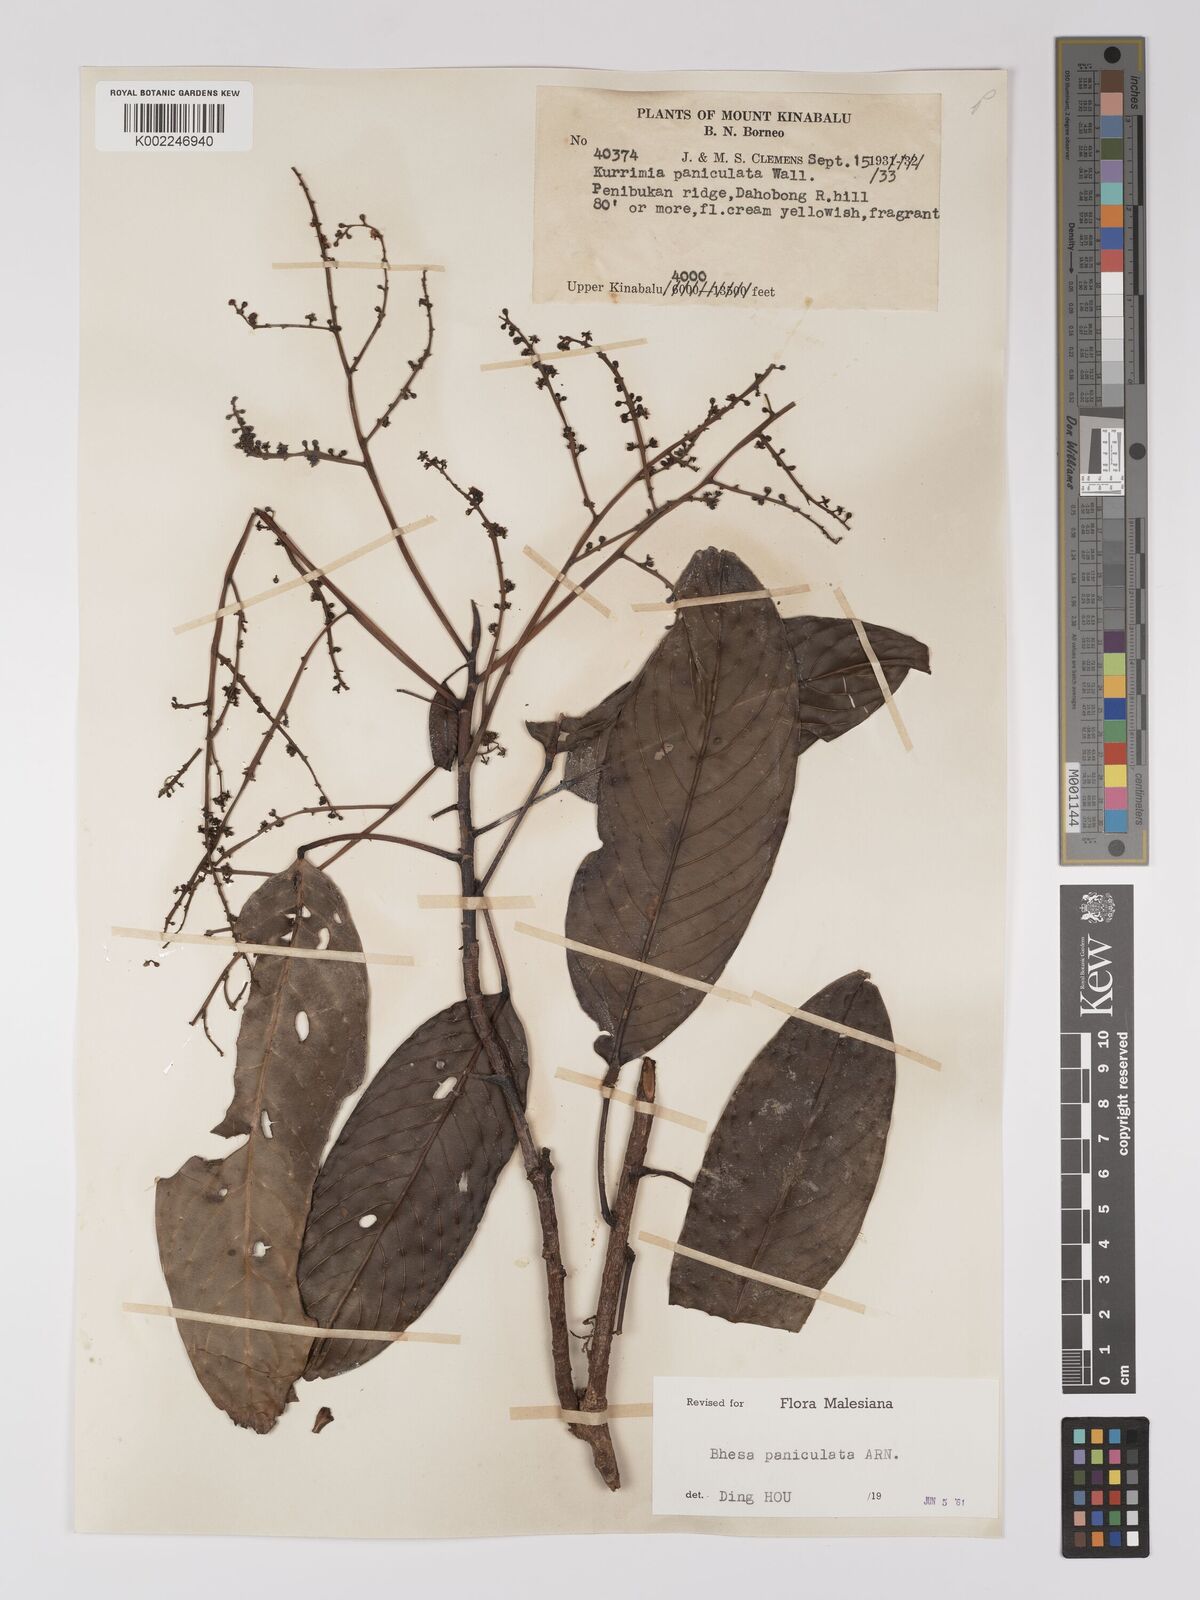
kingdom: Plantae
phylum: Tracheophyta
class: Magnoliopsida
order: Malpighiales
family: Centroplacaceae
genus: Bhesa
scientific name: Bhesa paniculata
